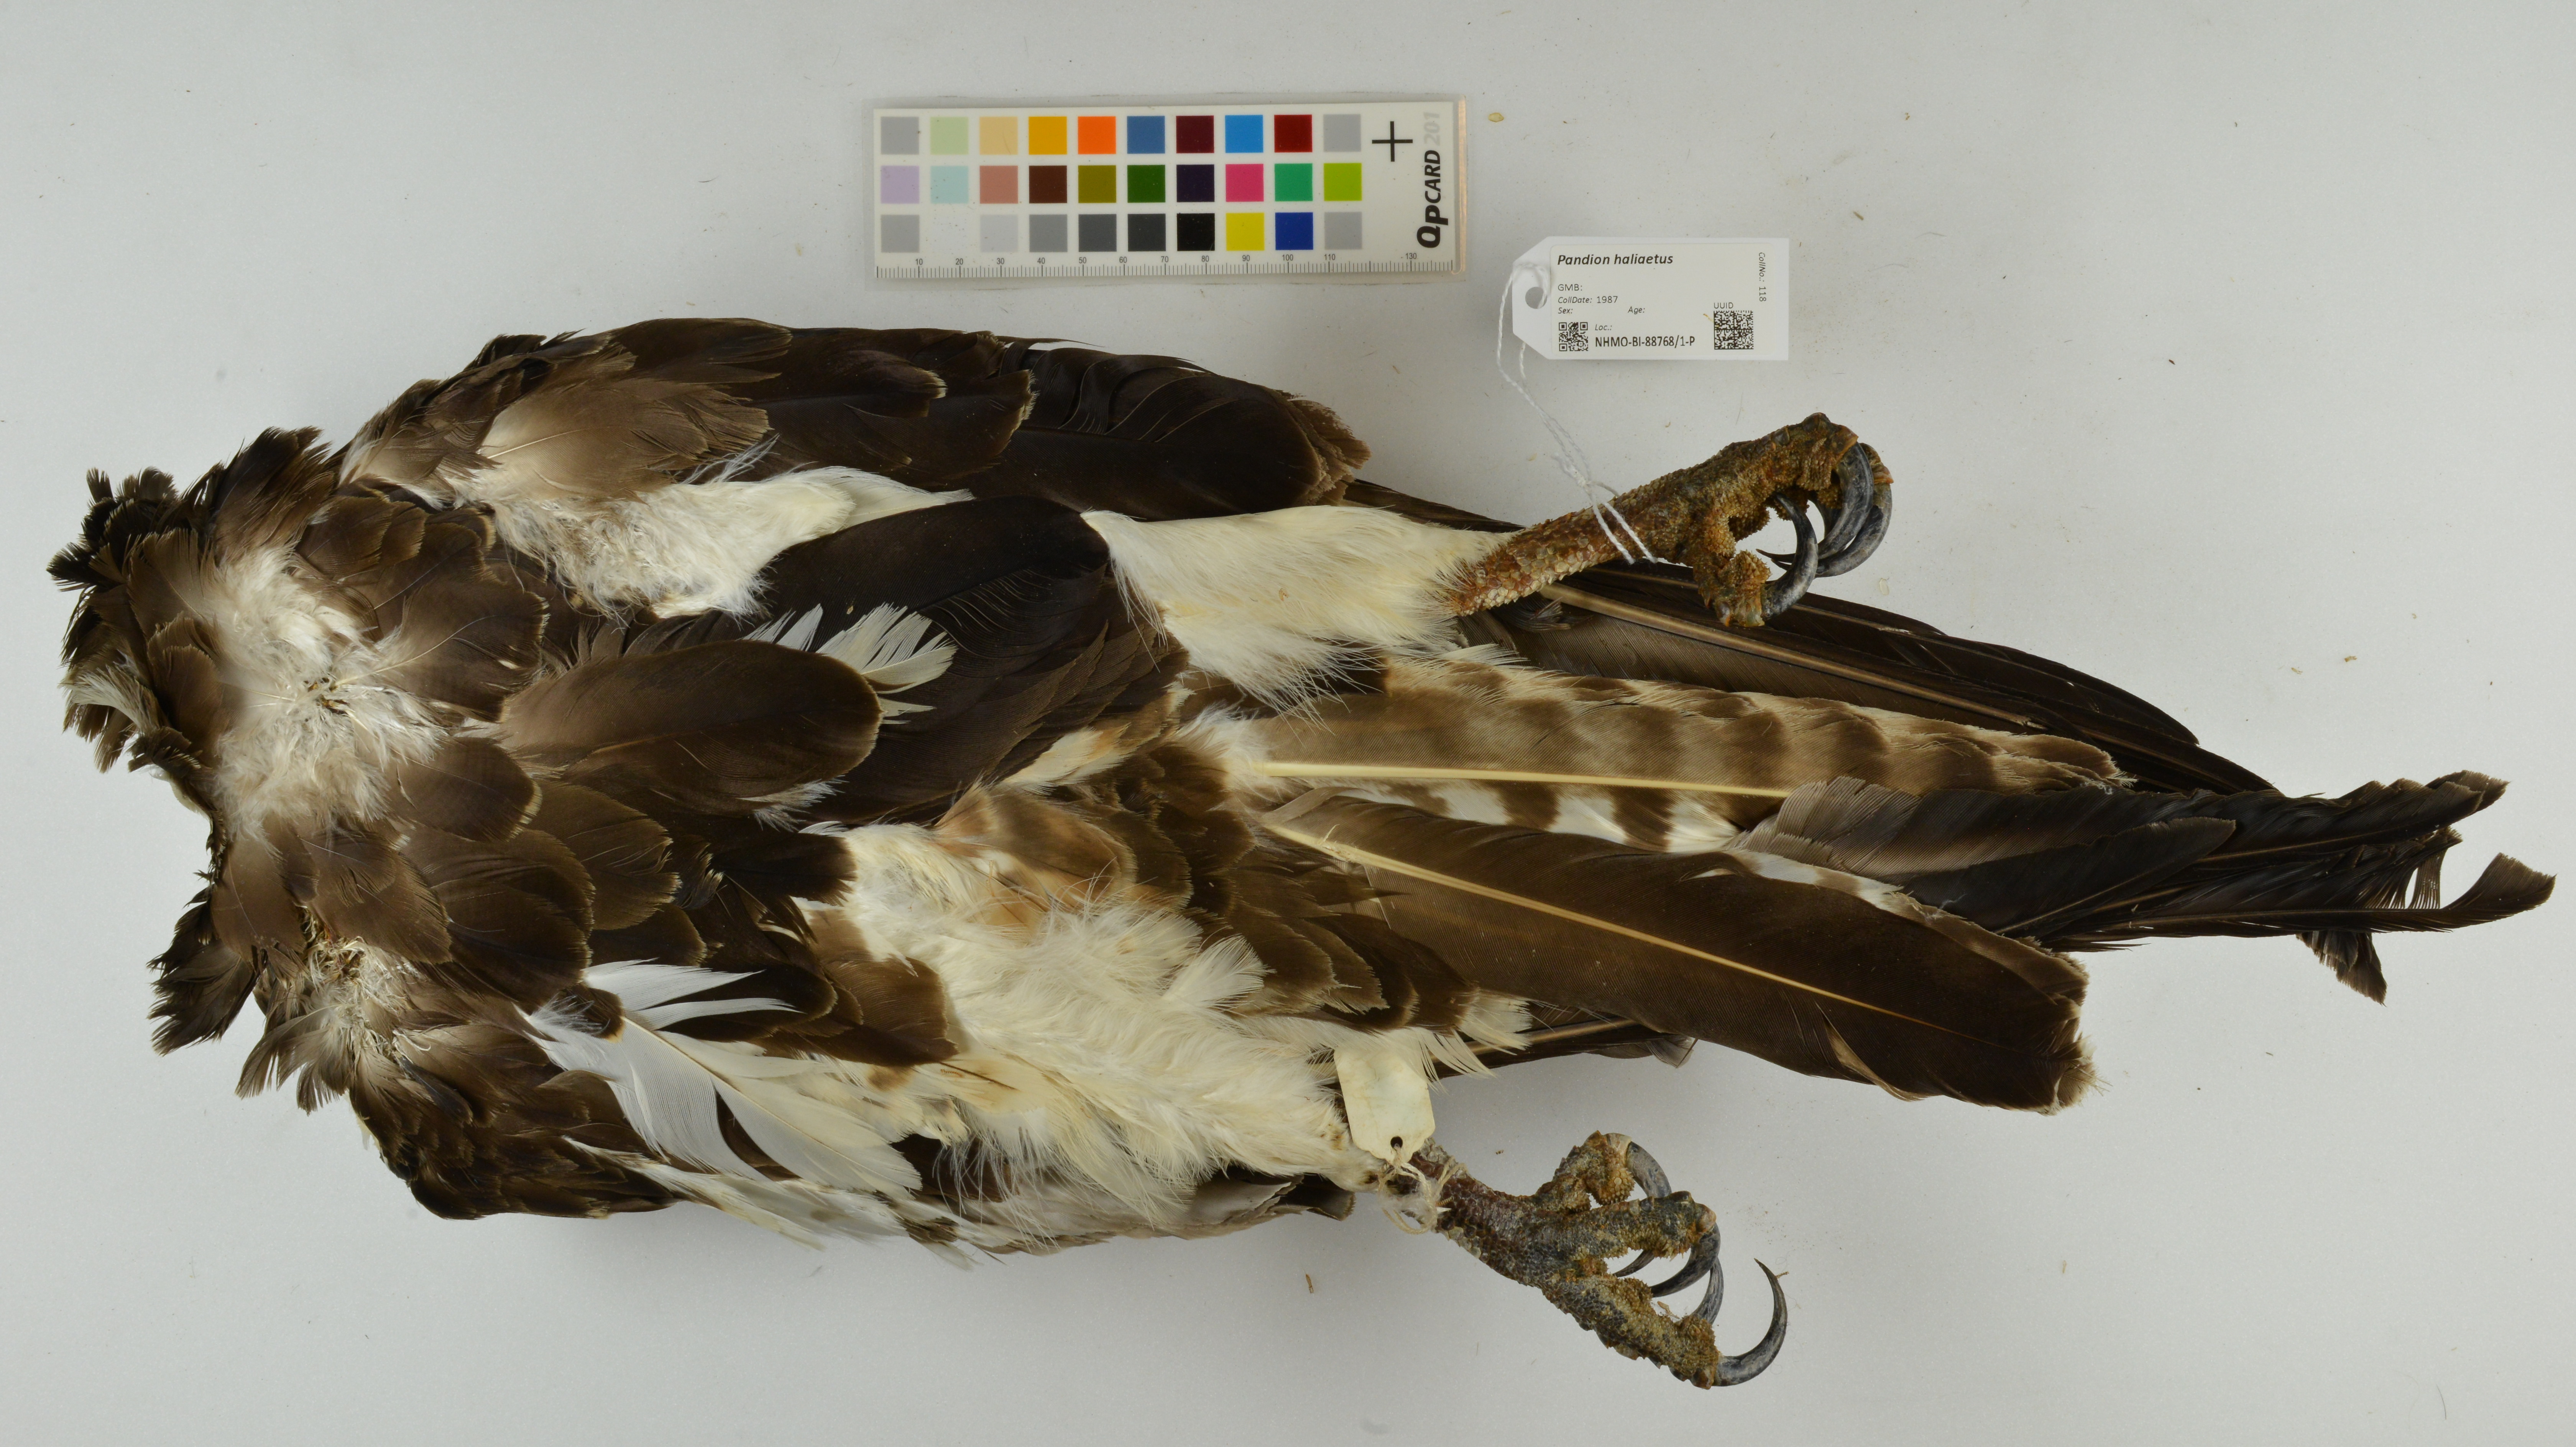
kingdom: Animalia
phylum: Chordata
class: Aves
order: Accipitriformes
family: Pandionidae
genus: Pandion
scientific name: Pandion haliaetus
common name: Osprey
